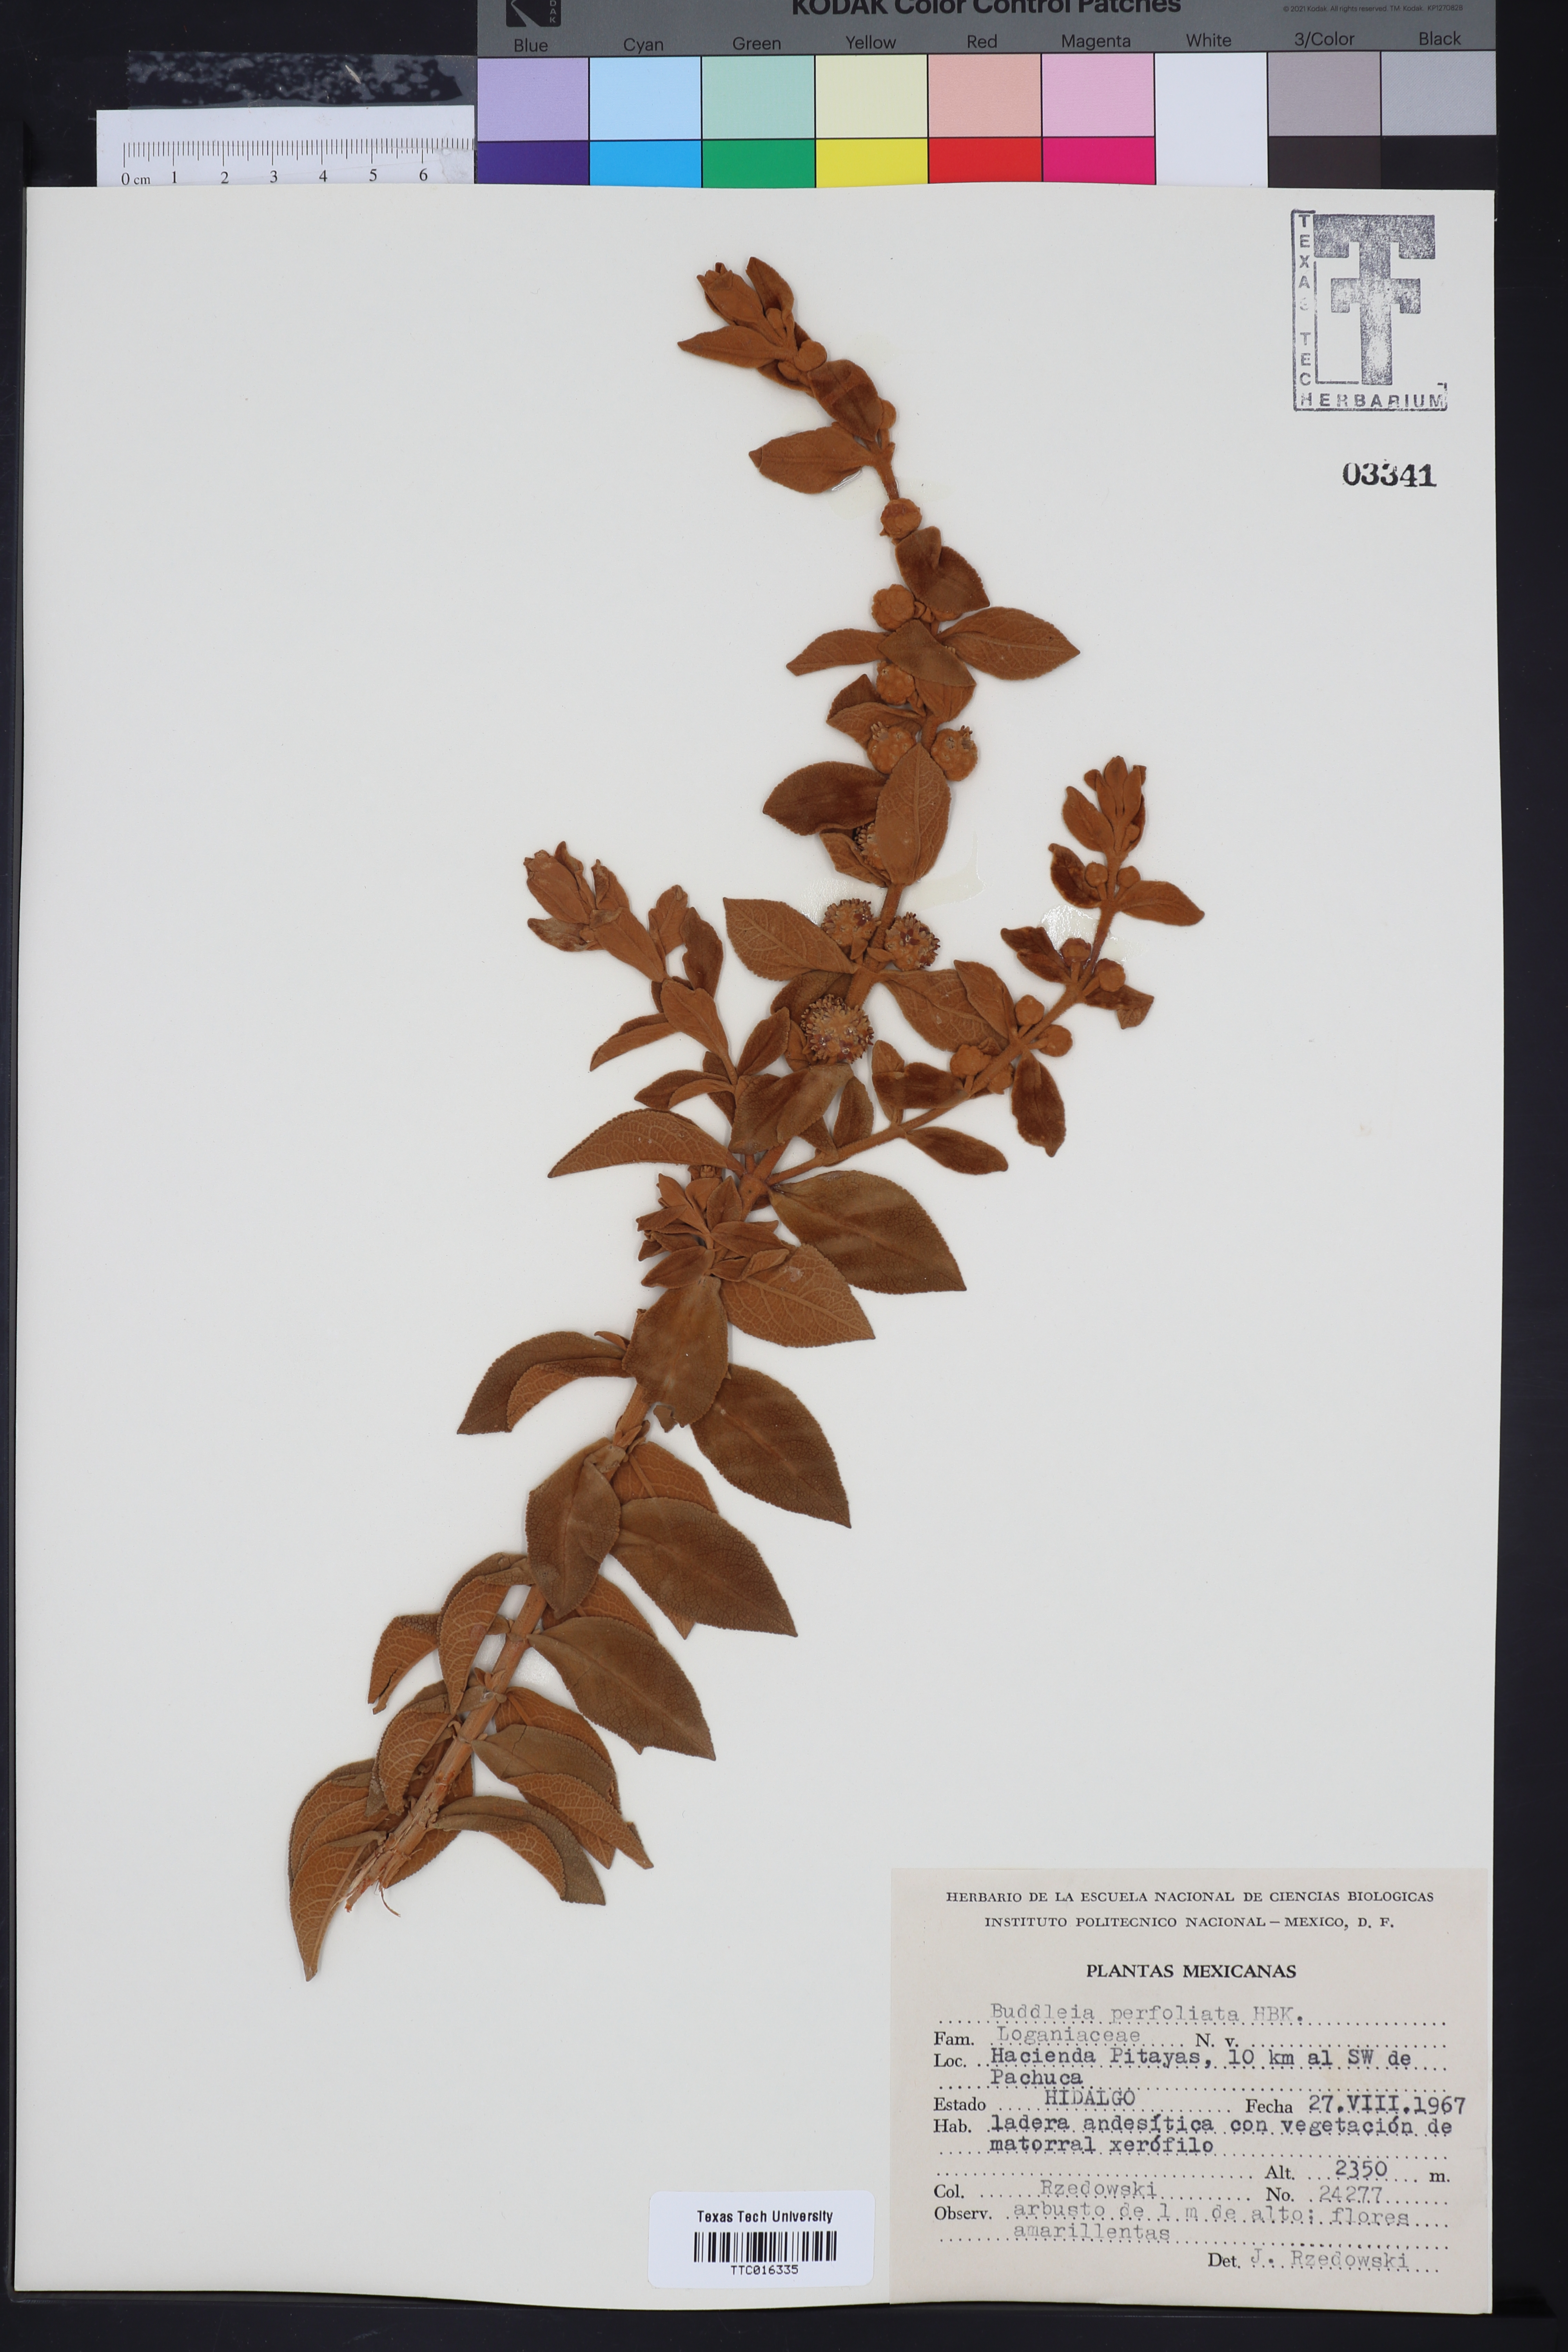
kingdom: Plantae
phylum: Tracheophyta
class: Magnoliopsida
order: Lamiales
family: Scrophulariaceae
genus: Buddleja
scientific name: Buddleja perfoliata
